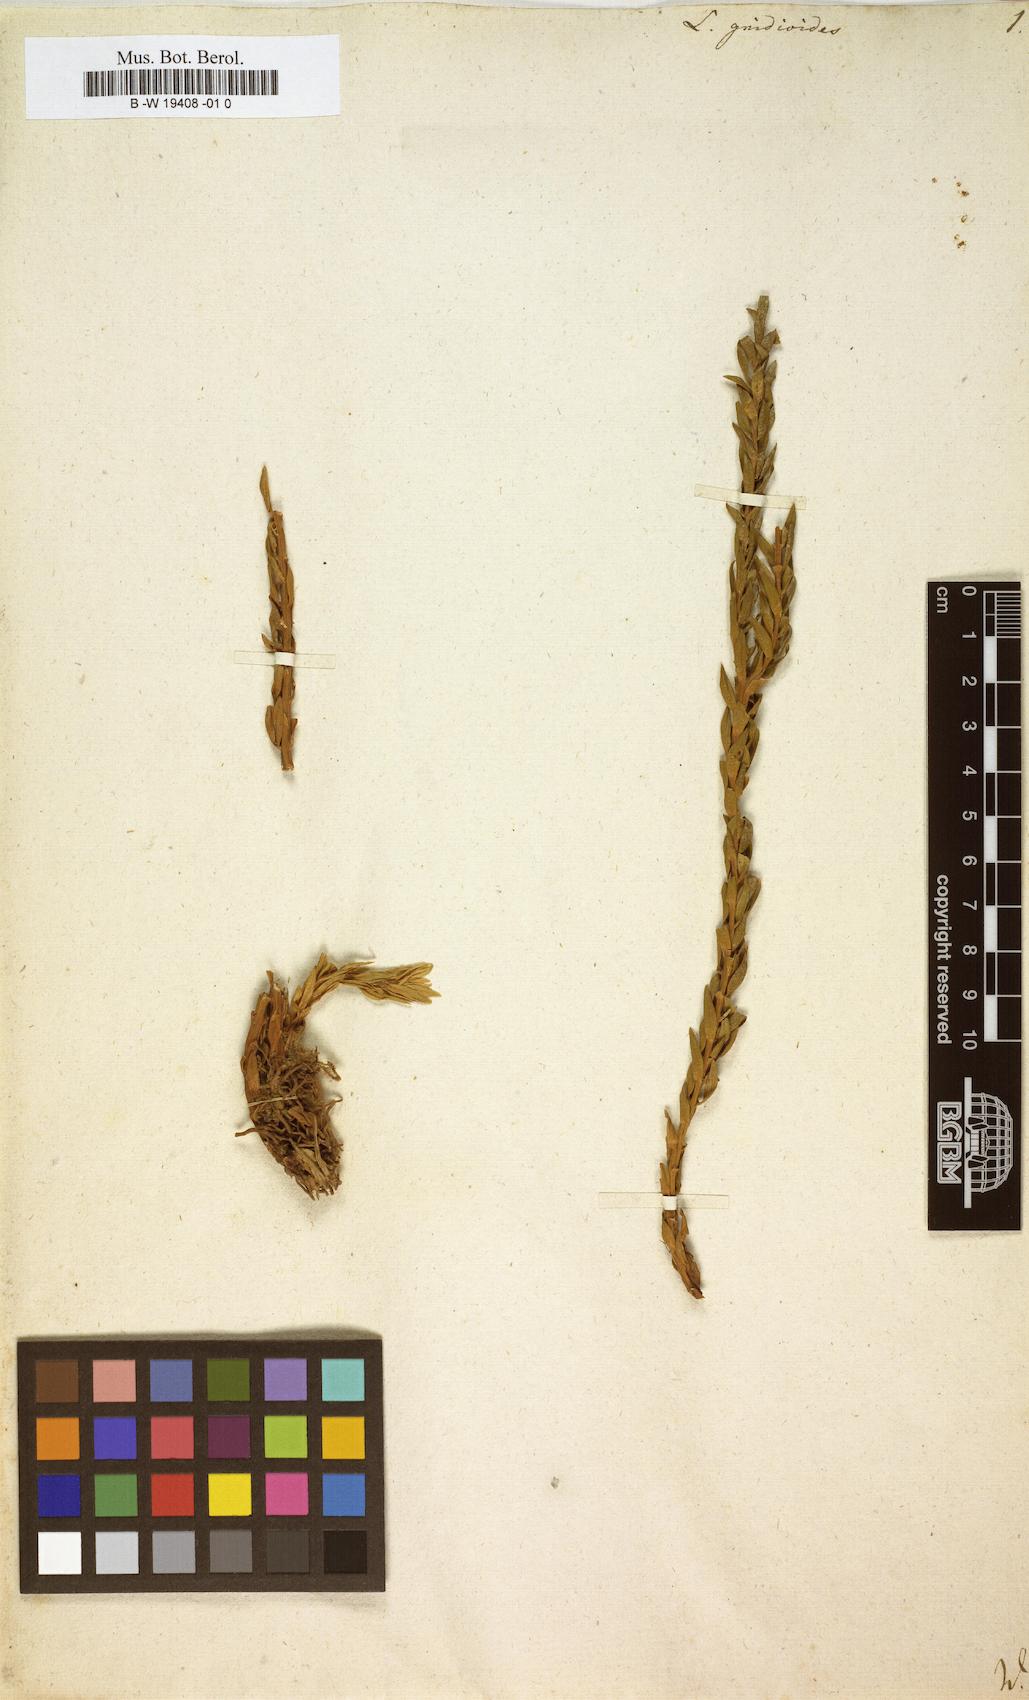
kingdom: Plantae
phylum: Tracheophyta
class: Lycopodiopsida
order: Lycopodiales
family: Lycopodiaceae
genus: Phlegmariurus
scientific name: Phlegmariurus
